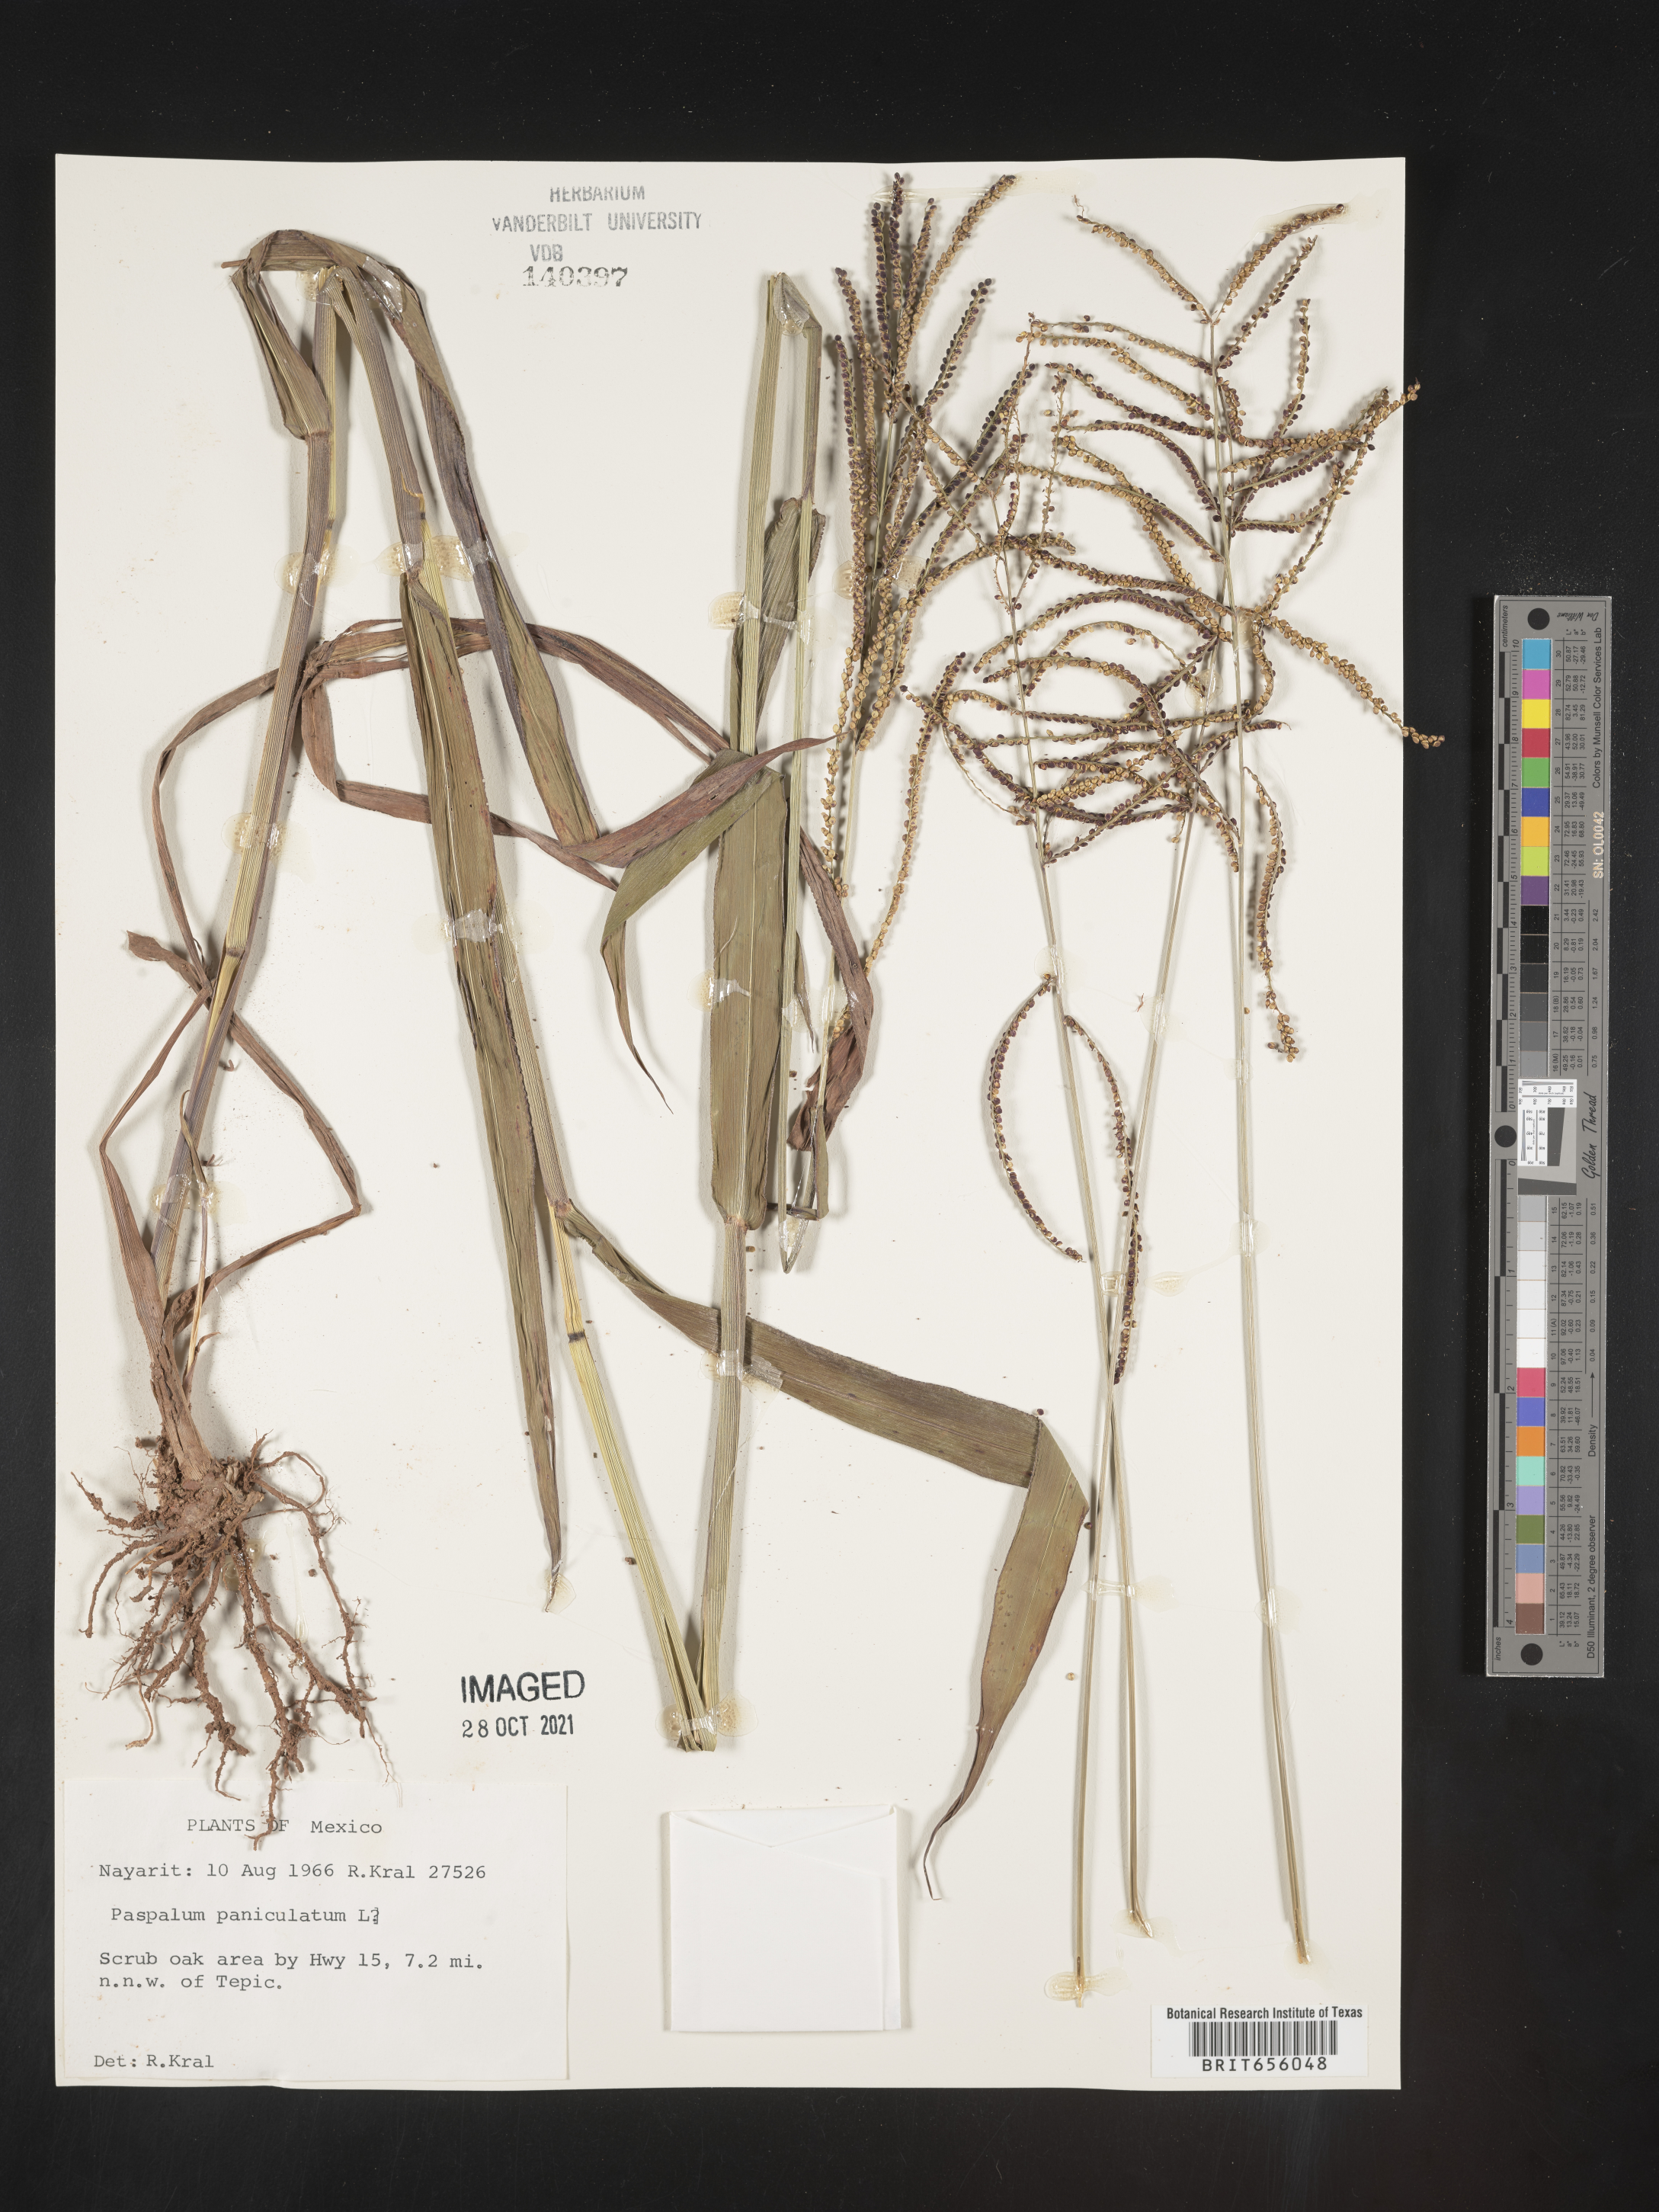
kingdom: Plantae
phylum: Tracheophyta
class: Liliopsida
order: Poales
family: Poaceae
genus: Paspalum
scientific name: Paspalum
